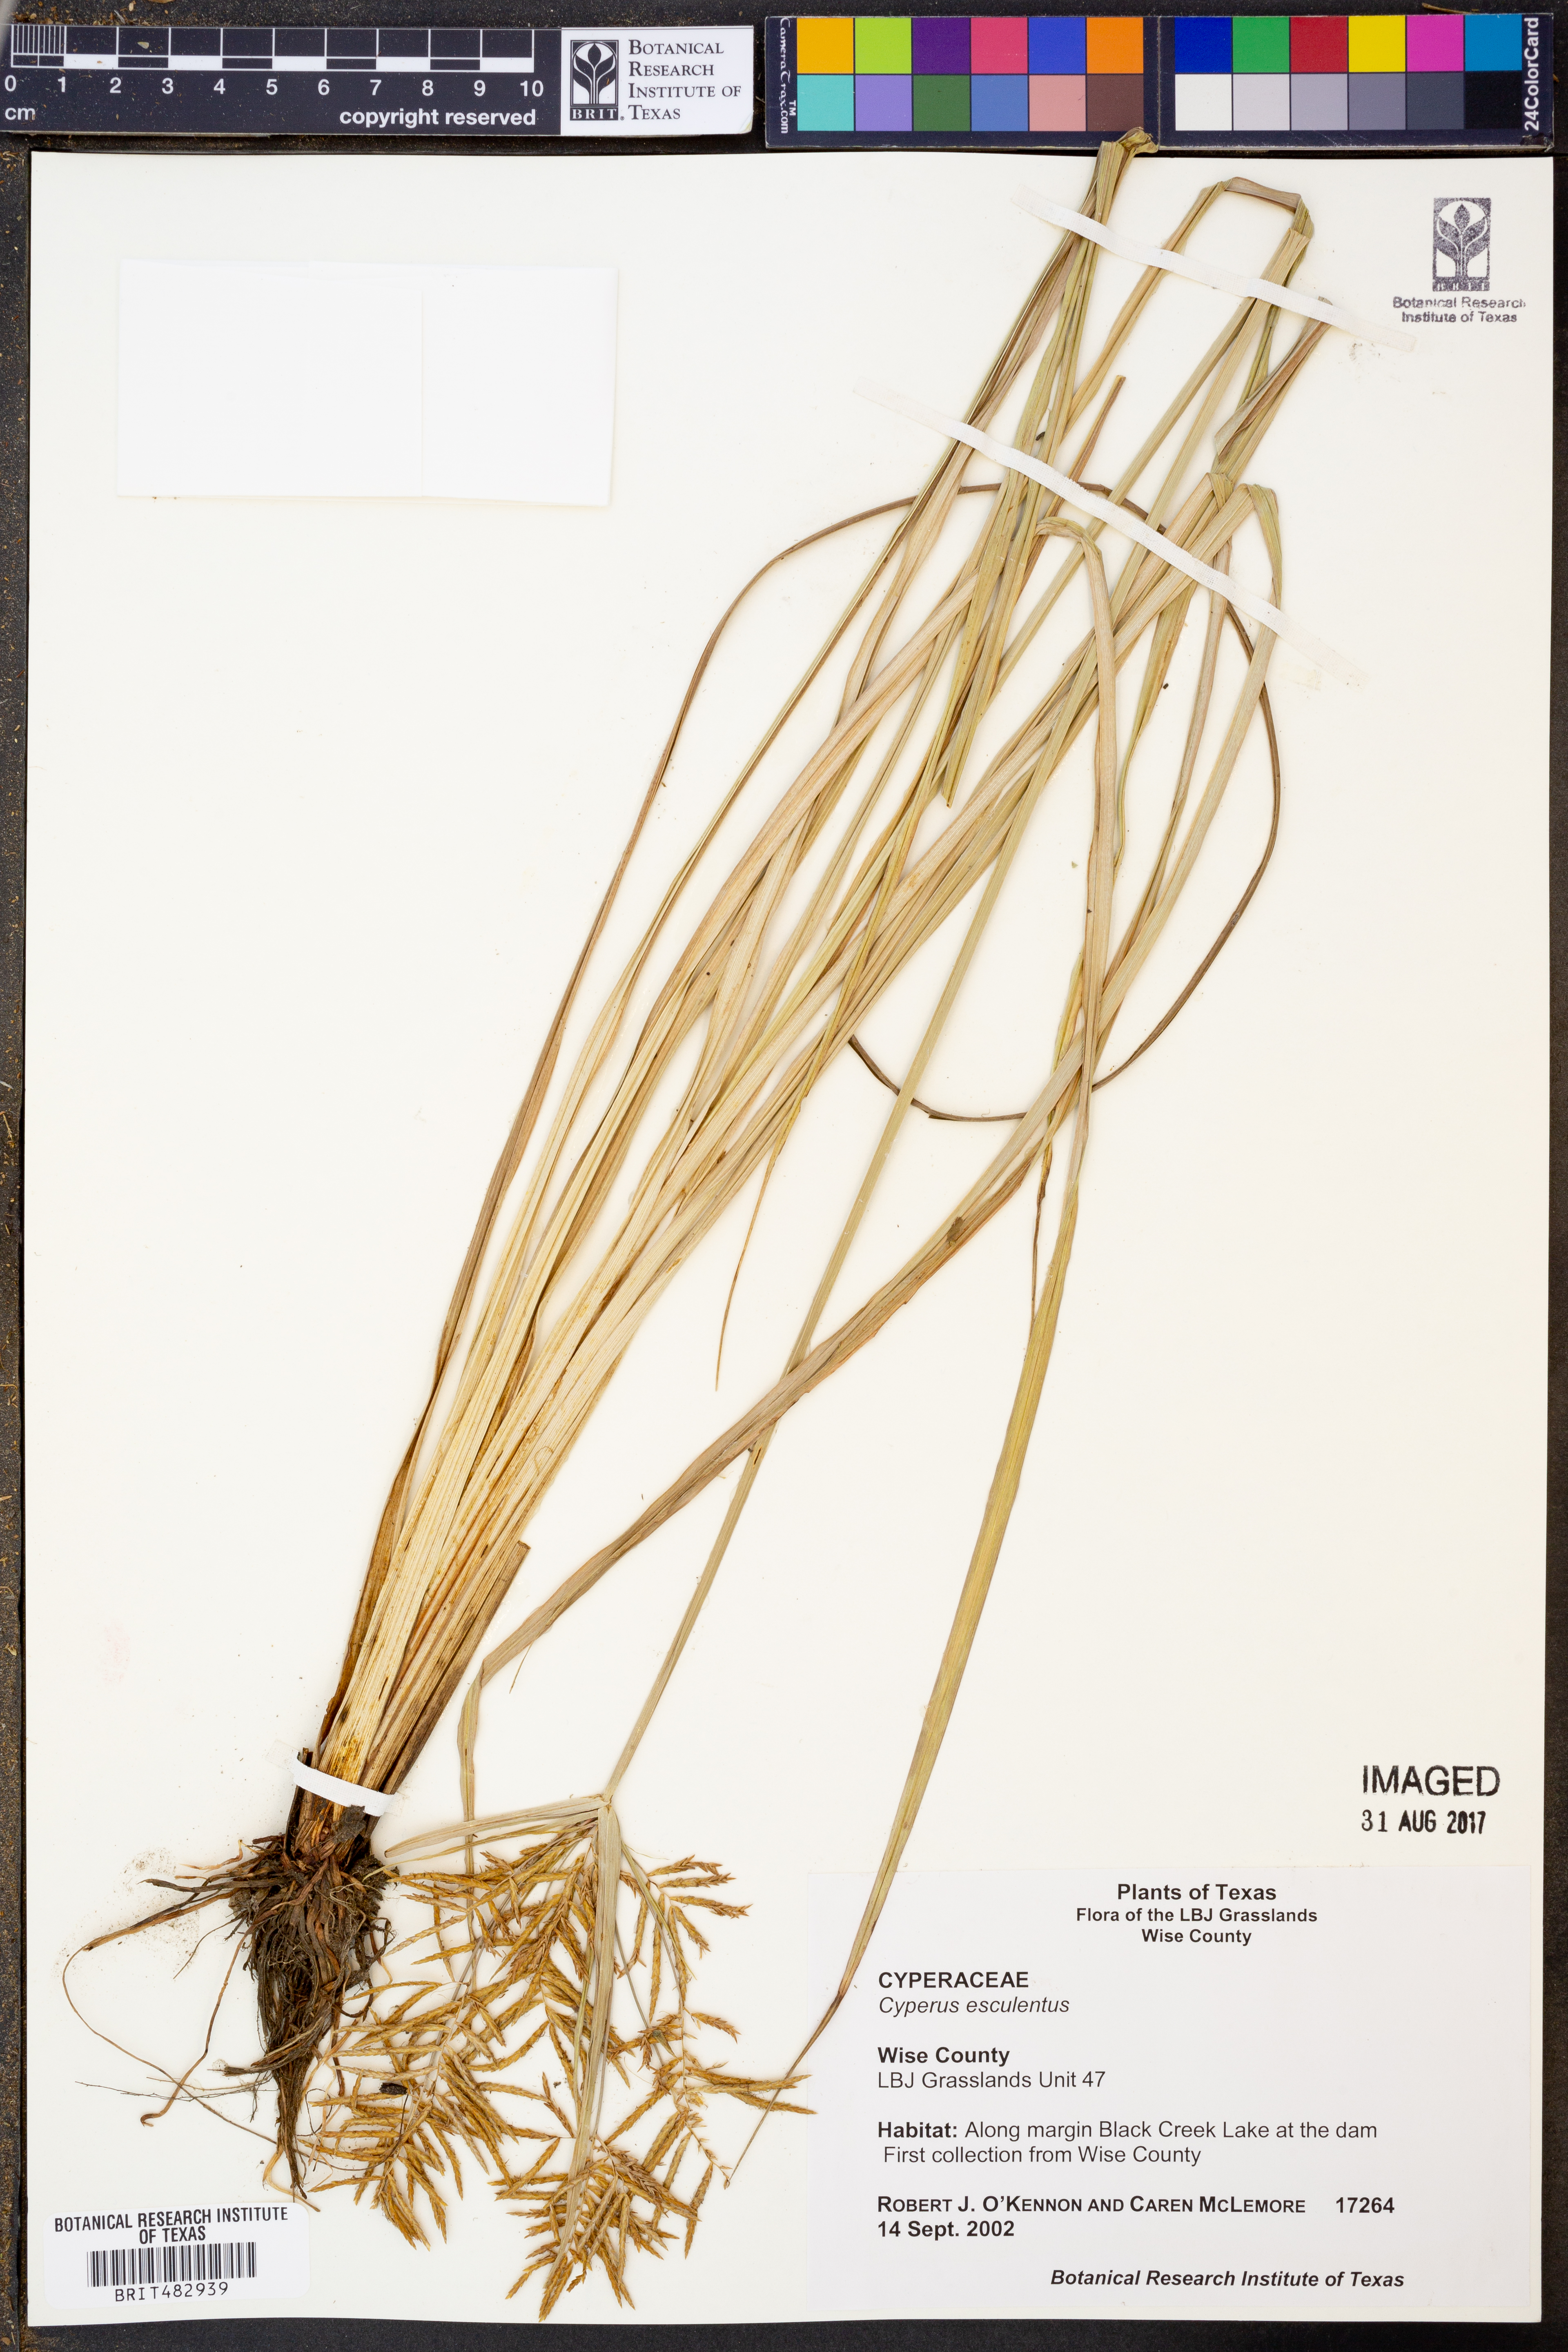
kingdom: Plantae
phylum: Tracheophyta
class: Liliopsida
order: Poales
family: Cyperaceae
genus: Cyperus
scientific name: Cyperus esculentus
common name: Yellow nutsedge
